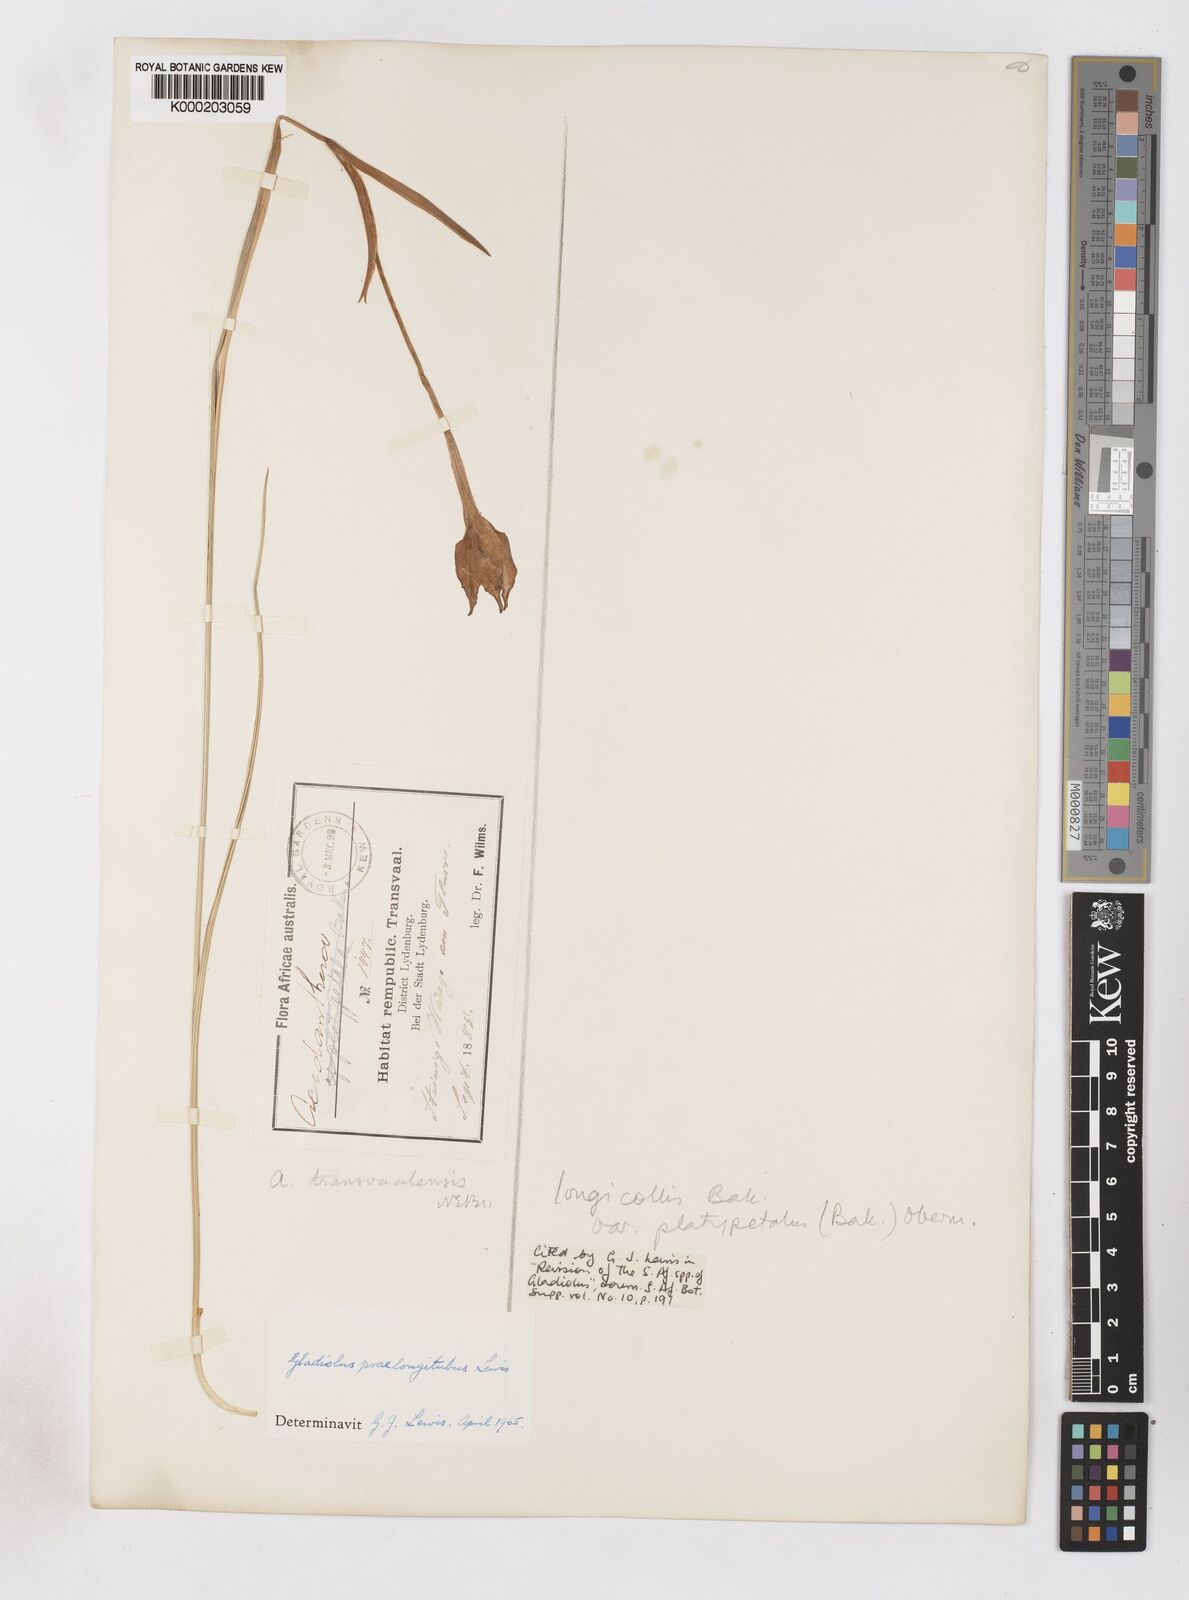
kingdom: Plantae
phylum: Tracheophyta
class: Liliopsida
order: Asparagales
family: Iridaceae
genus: Gladiolus
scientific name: Gladiolus longicollis
